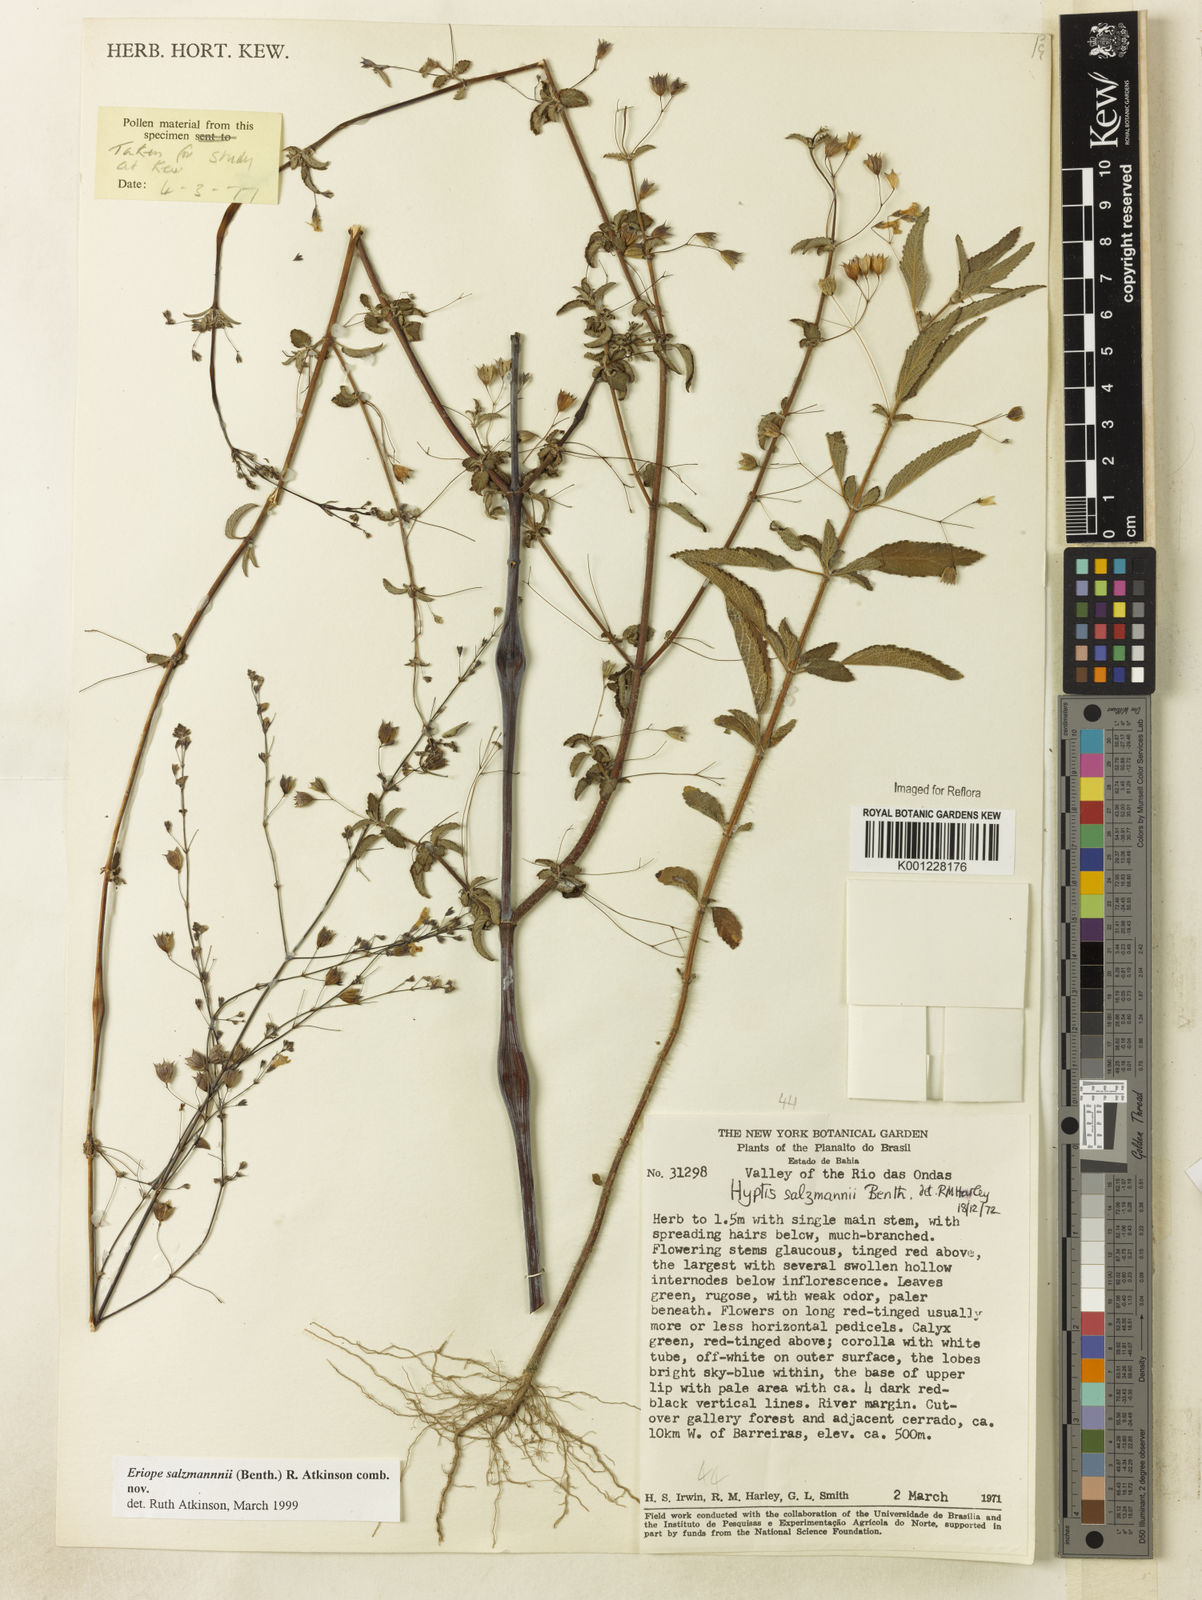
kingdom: Plantae
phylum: Tracheophyta
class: Magnoliopsida
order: Lamiales
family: Lamiaceae
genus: Hypenia
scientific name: Hypenia salzmannii
